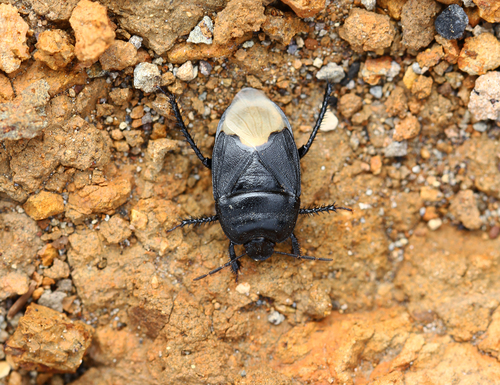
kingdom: Animalia
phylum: Arthropoda
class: Insecta
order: Hemiptera
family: Cydnidae
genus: Cydnus
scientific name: Cydnus aterrimus
